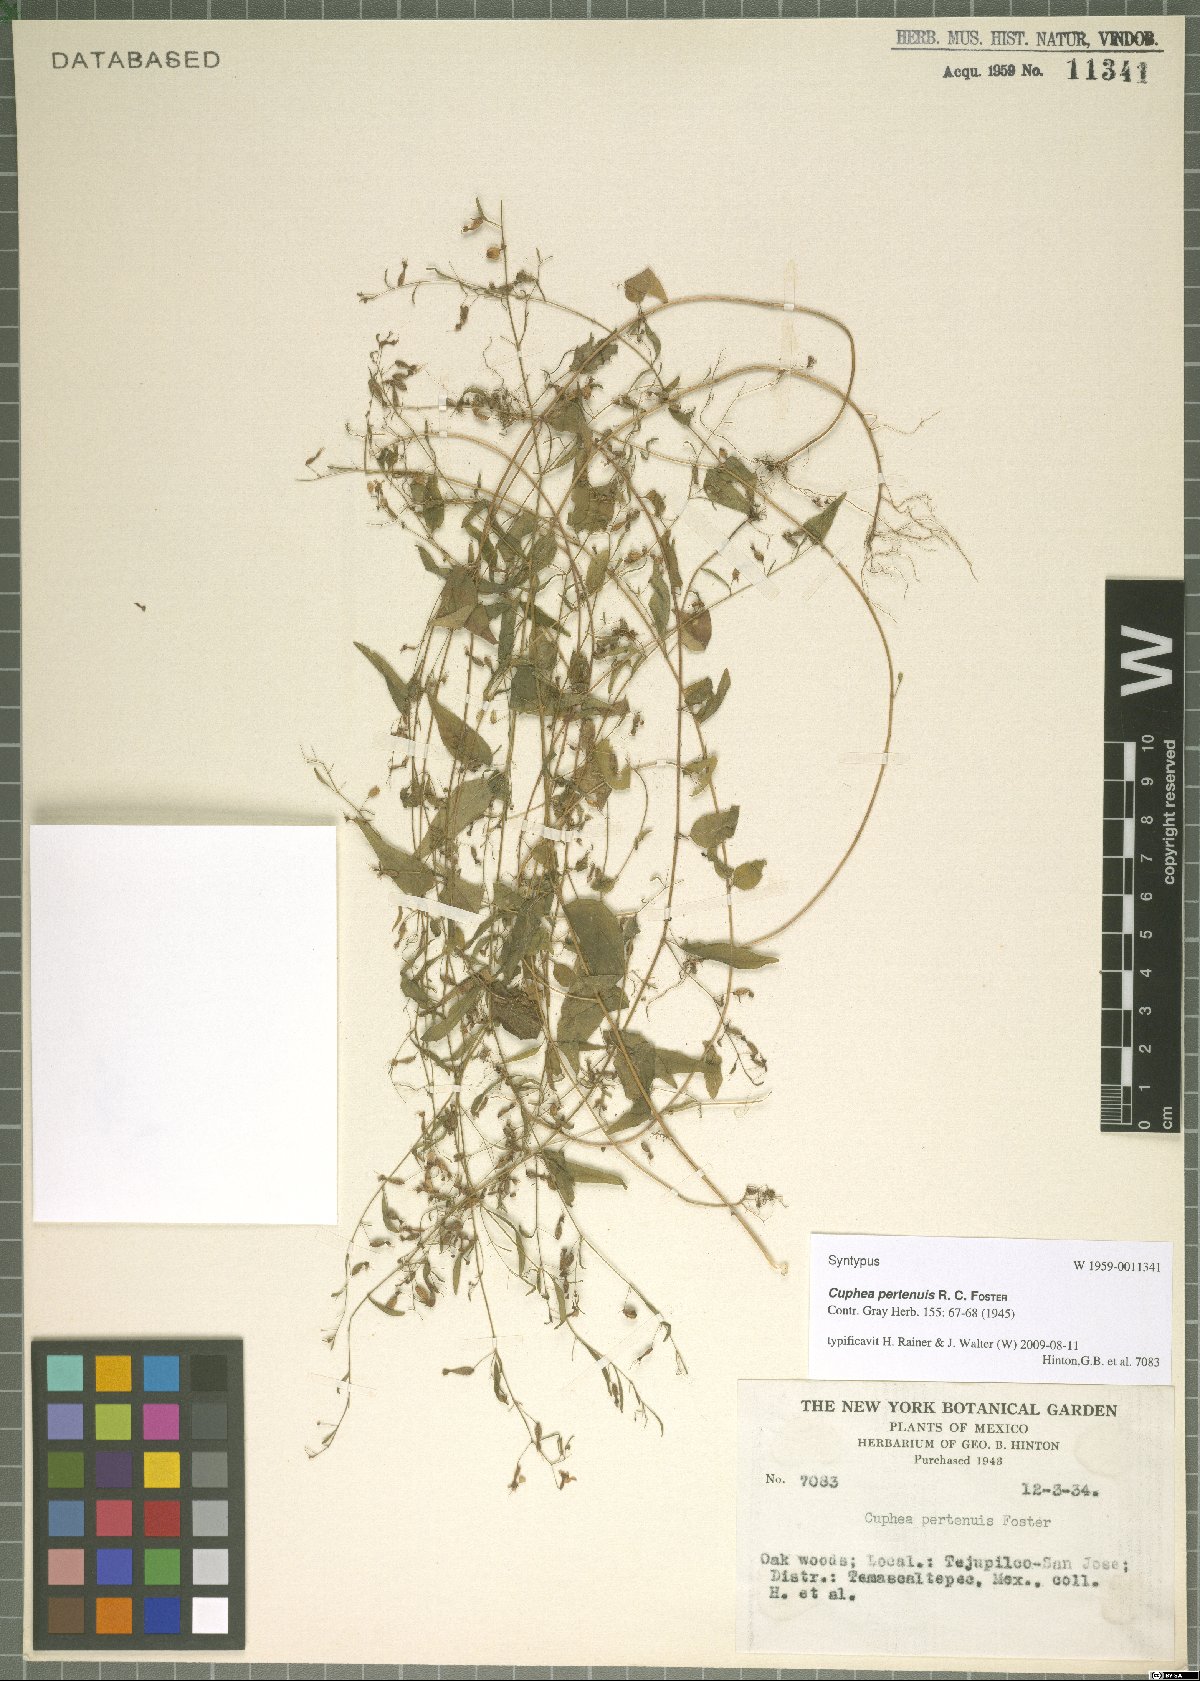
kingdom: Plantae
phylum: Tracheophyta
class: Magnoliopsida
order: Myrtales
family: Lythraceae
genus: Cuphea
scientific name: Cuphea pertenuis
